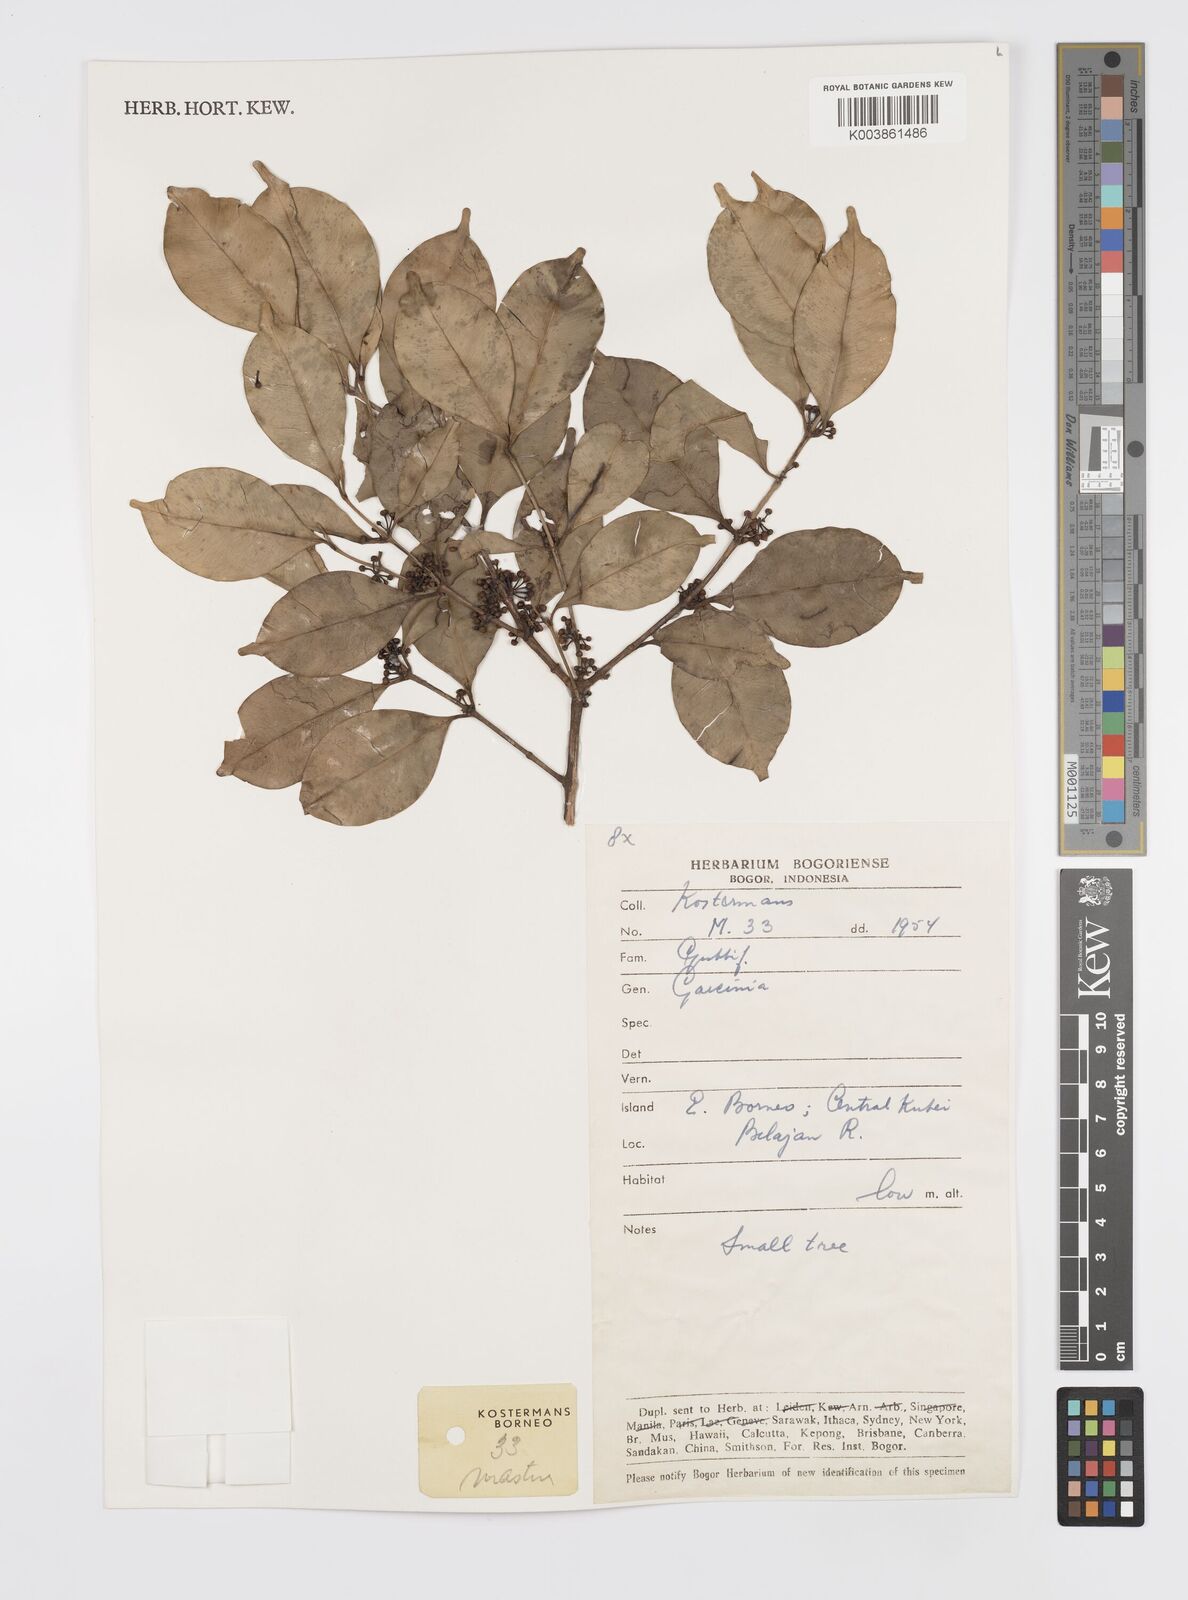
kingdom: Plantae
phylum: Tracheophyta
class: Magnoliopsida
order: Malpighiales
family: Clusiaceae
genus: Garcinia
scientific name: Garcinia
